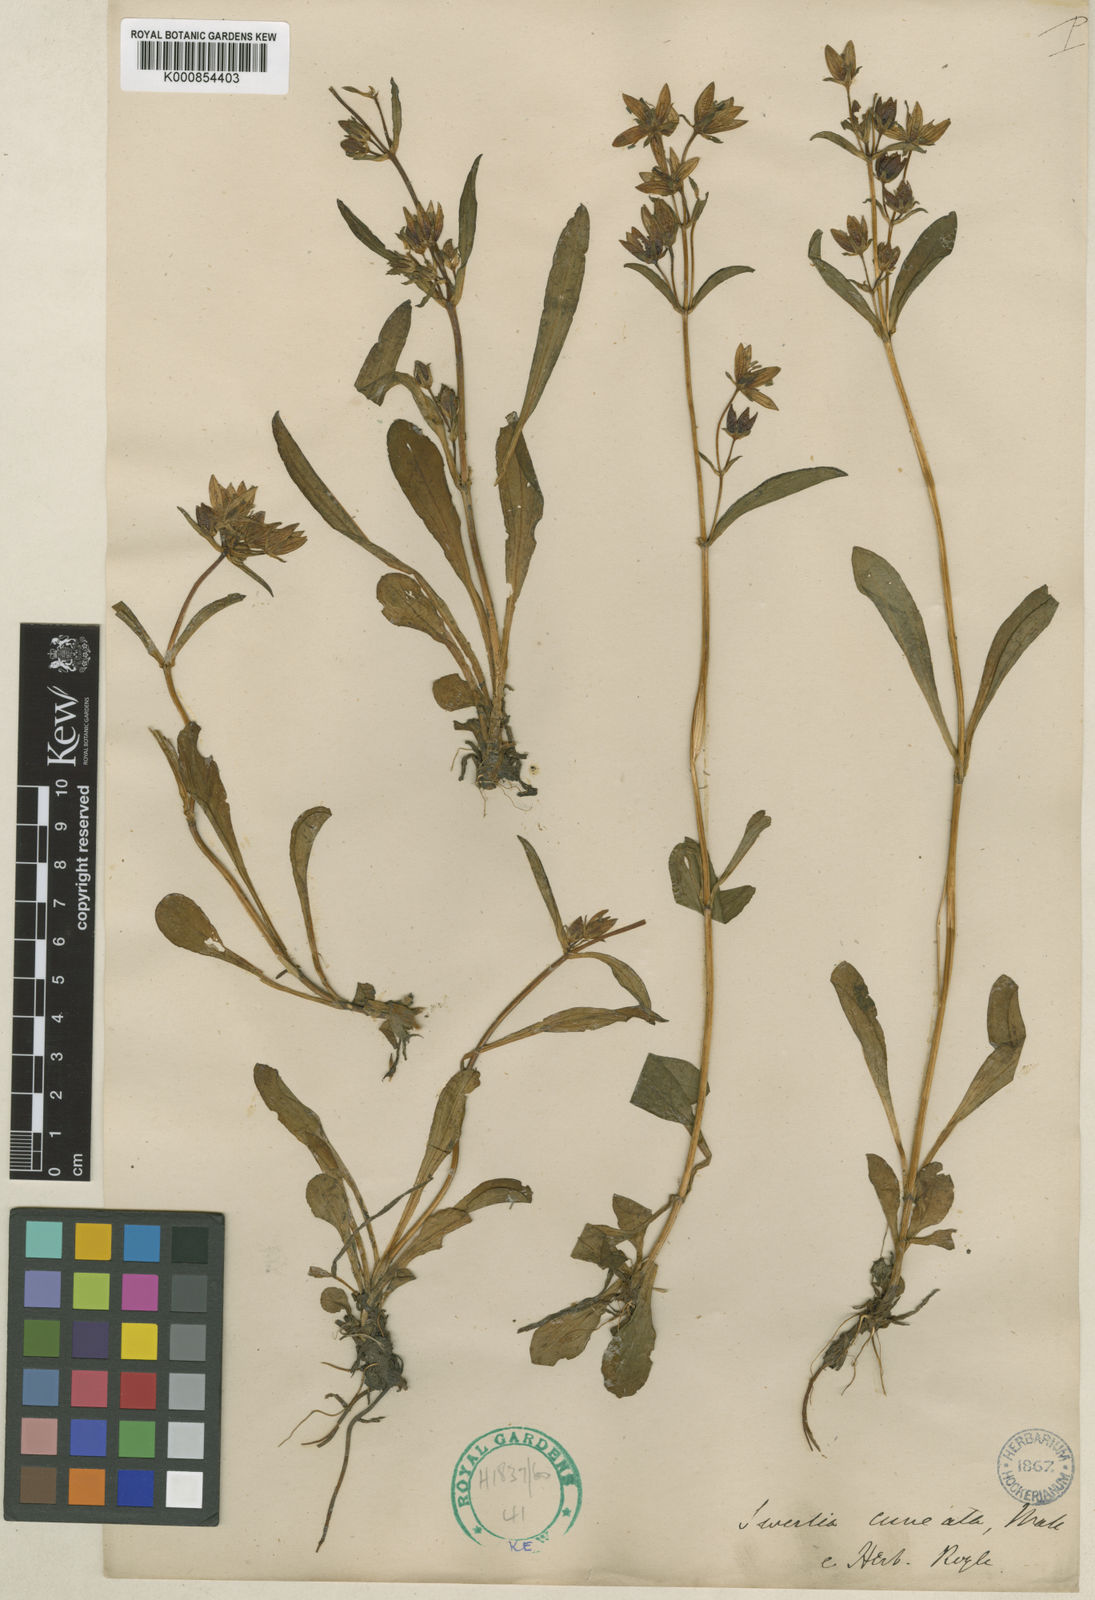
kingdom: Plantae
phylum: Tracheophyta
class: Magnoliopsida
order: Gentianales
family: Gentianaceae
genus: Swertia
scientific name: Swertia
